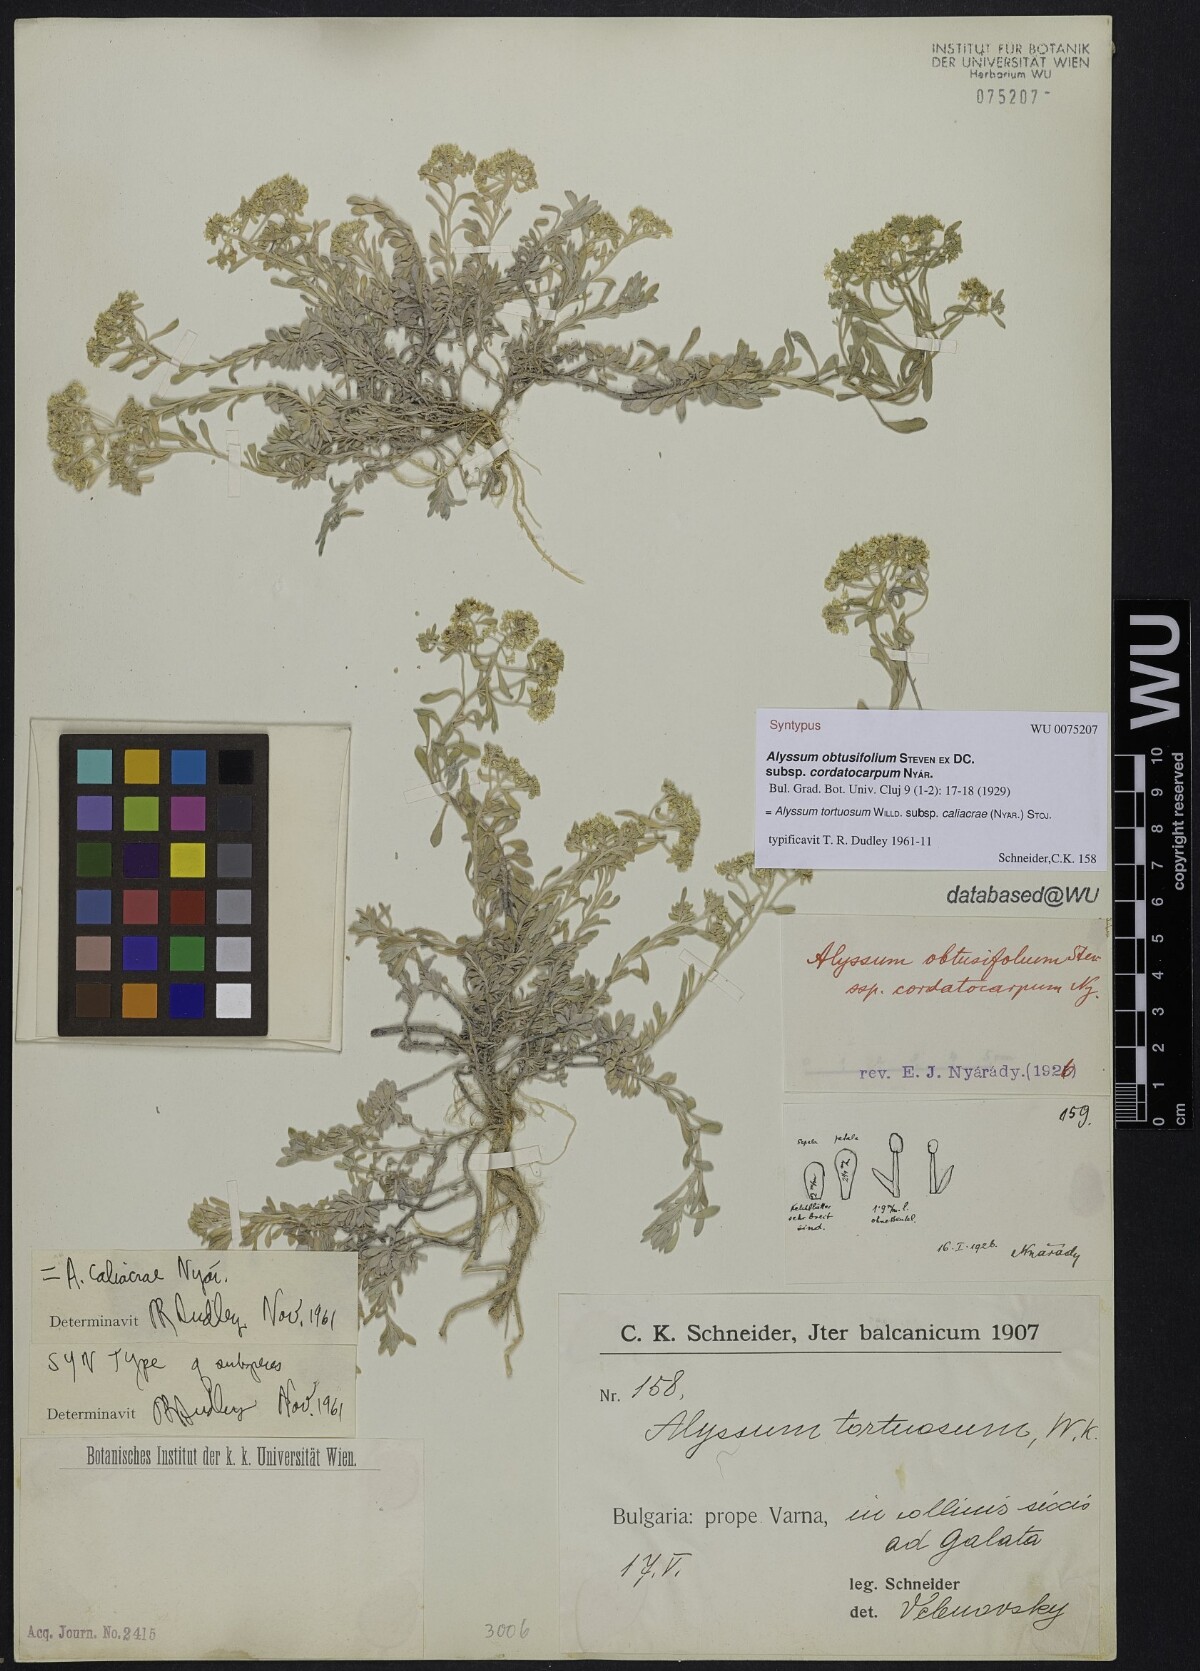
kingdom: Plantae
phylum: Tracheophyta
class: Magnoliopsida
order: Brassicales
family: Brassicaceae
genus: Odontarrhena
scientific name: Odontarrhena obtusifolia
